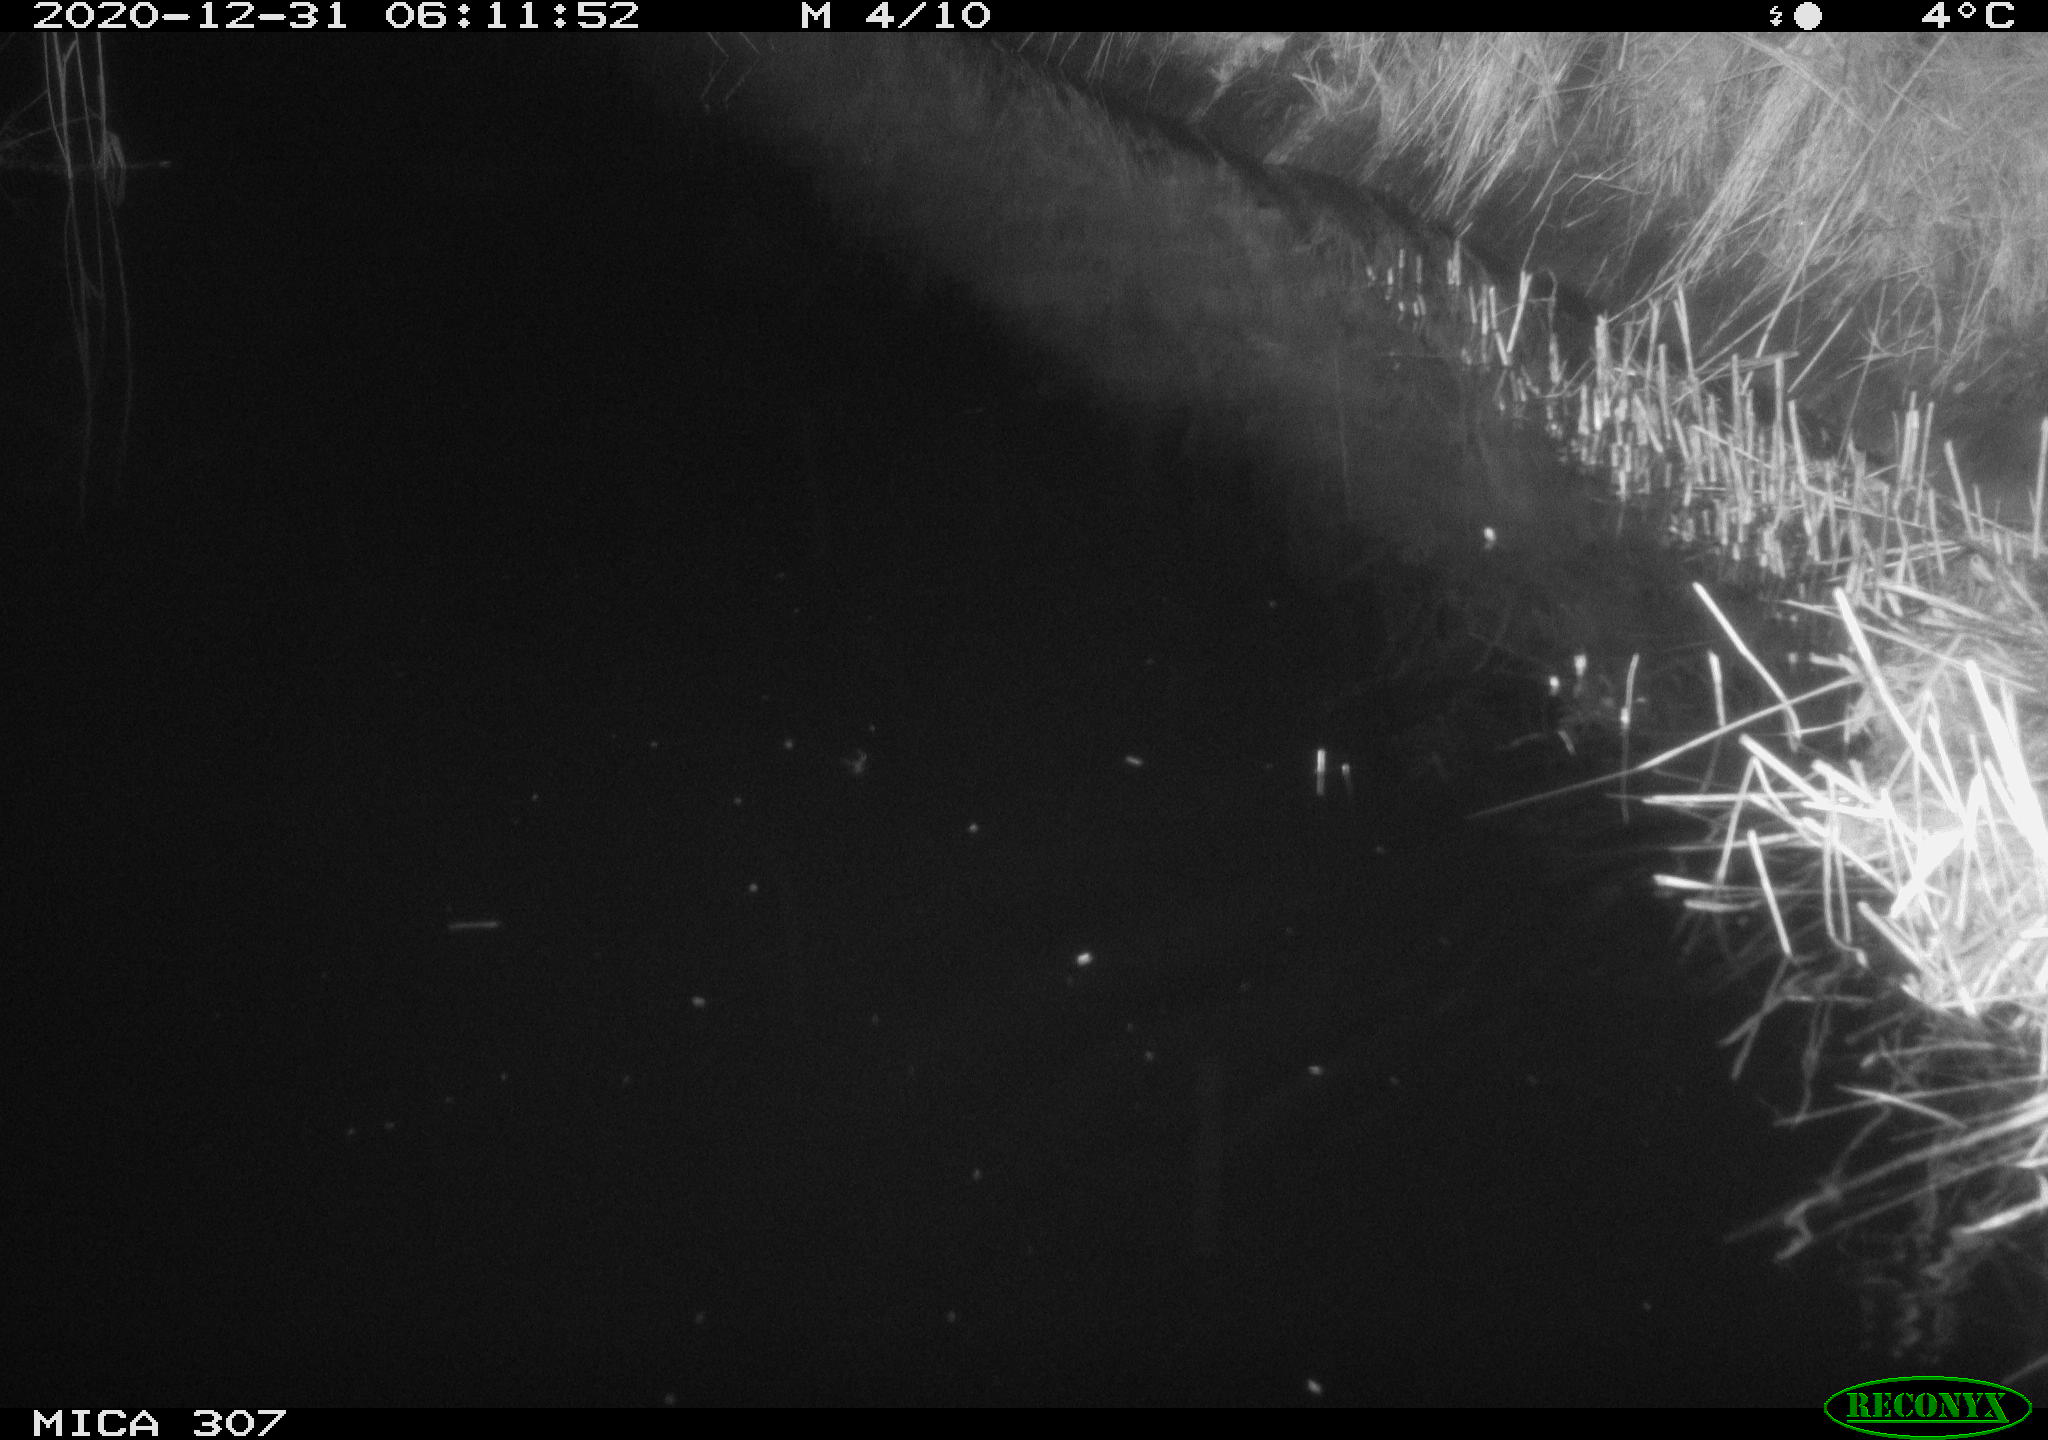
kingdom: Animalia
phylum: Chordata
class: Mammalia
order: Rodentia
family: Muridae
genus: Rattus
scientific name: Rattus norvegicus
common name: Brown rat
